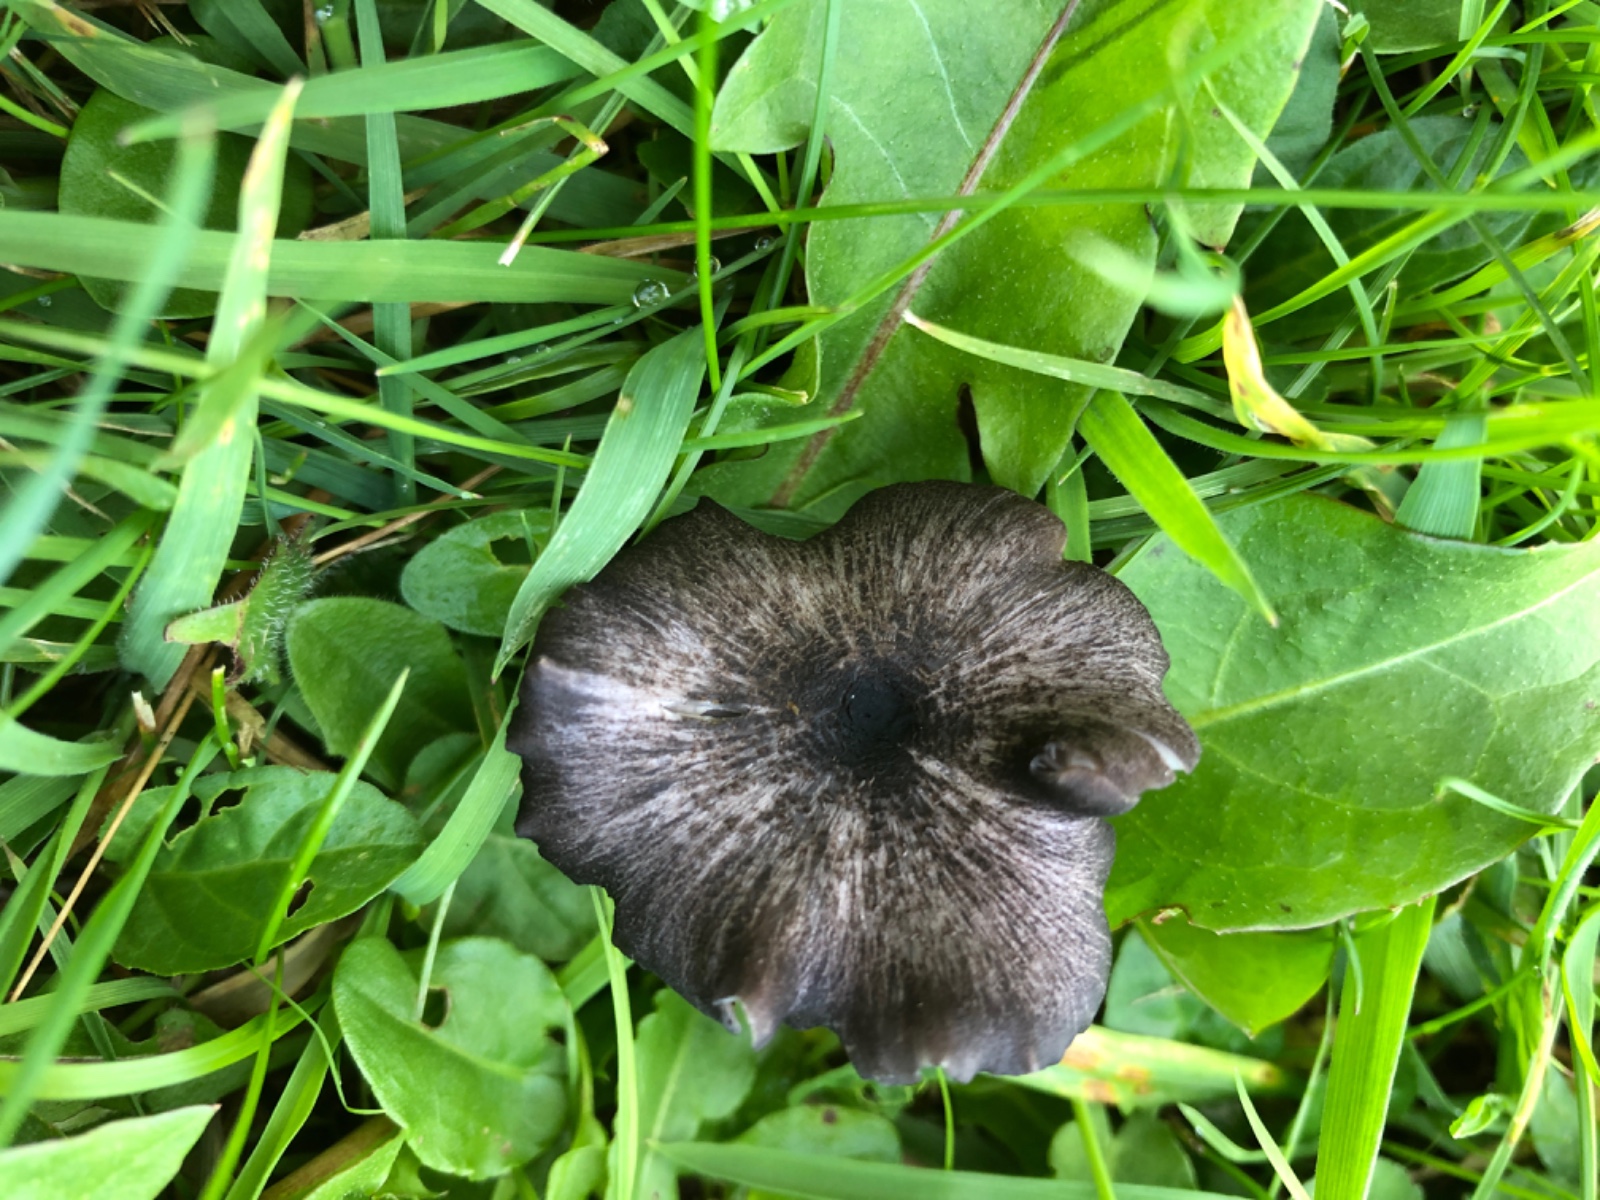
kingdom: Fungi
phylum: Basidiomycota
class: Agaricomycetes
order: Agaricales
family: Entolomataceae
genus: Entoloma
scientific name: Entoloma chalybeum
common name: blåbladet rødblad
